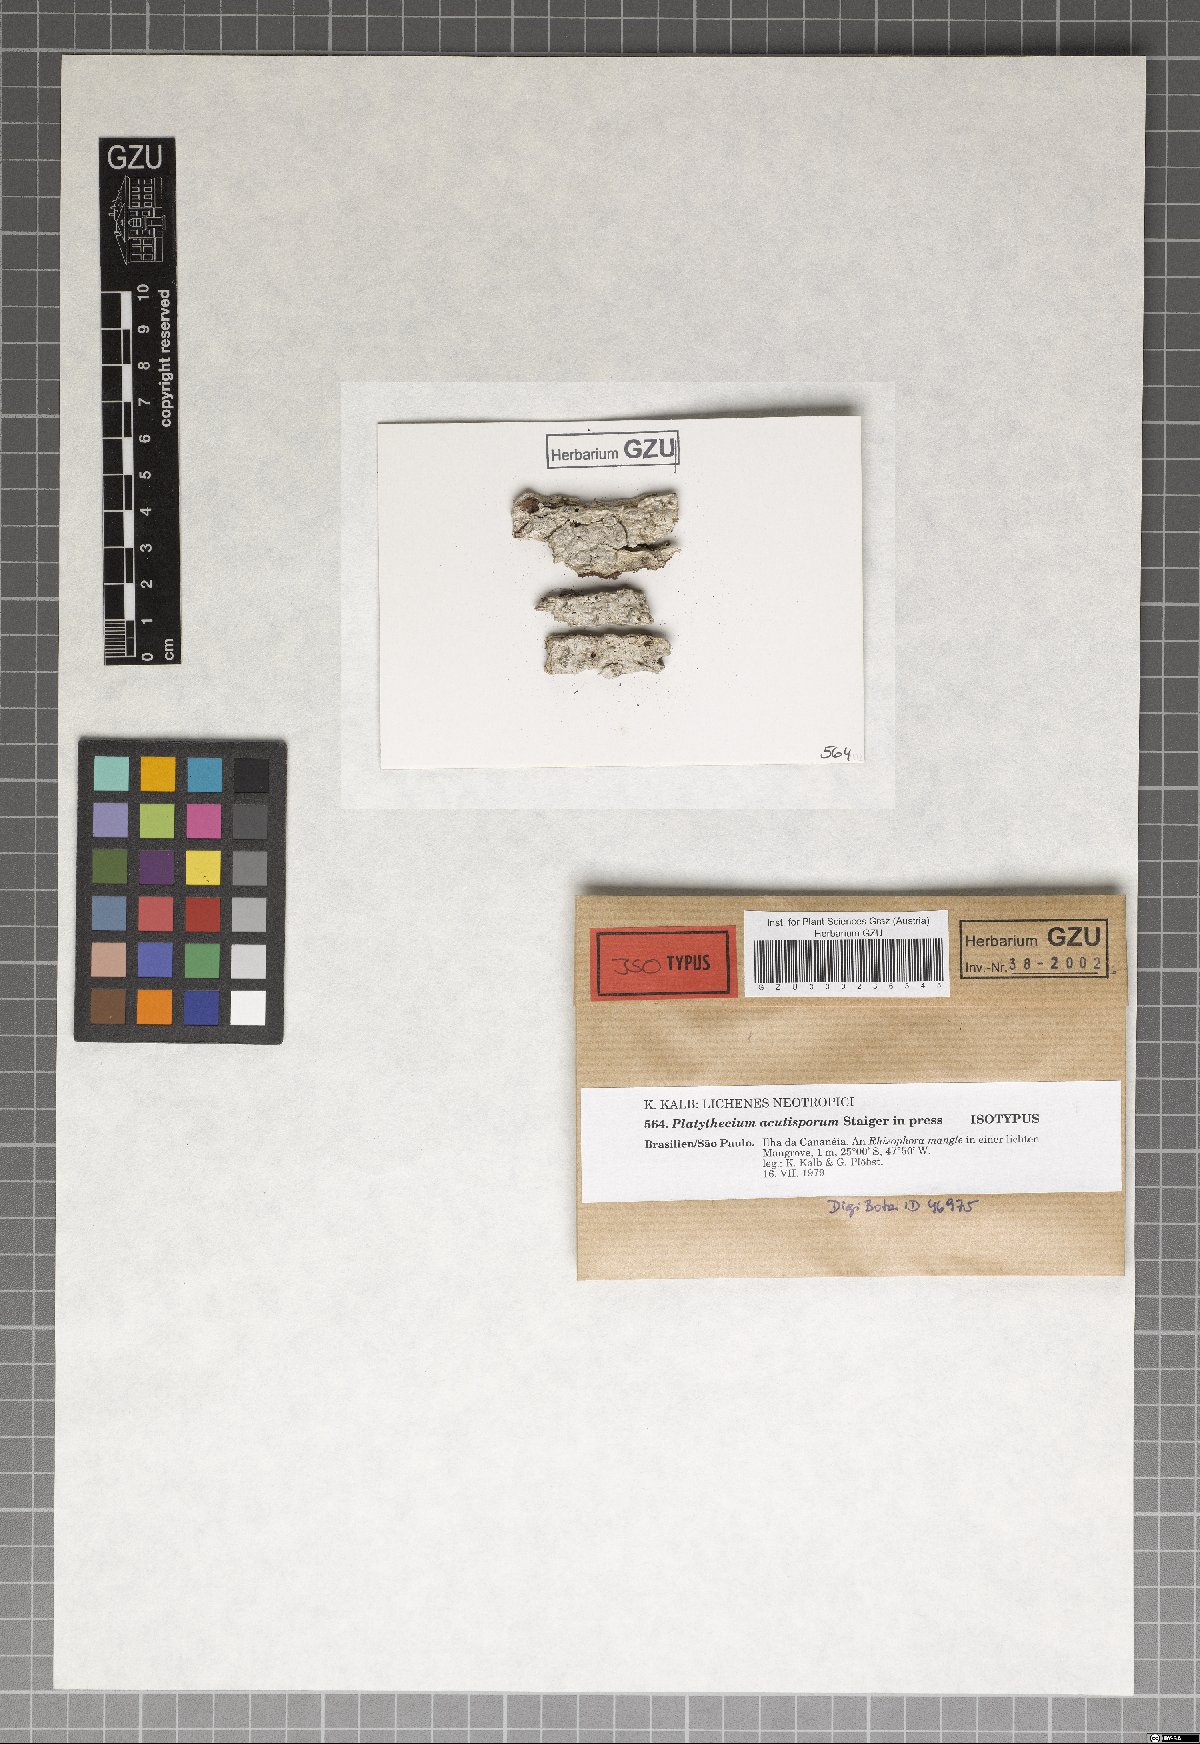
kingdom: Fungi
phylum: Ascomycota
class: Lecanoromycetes
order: Ostropales
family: Graphidaceae
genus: Platythecium
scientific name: Platythecium acutisporum
